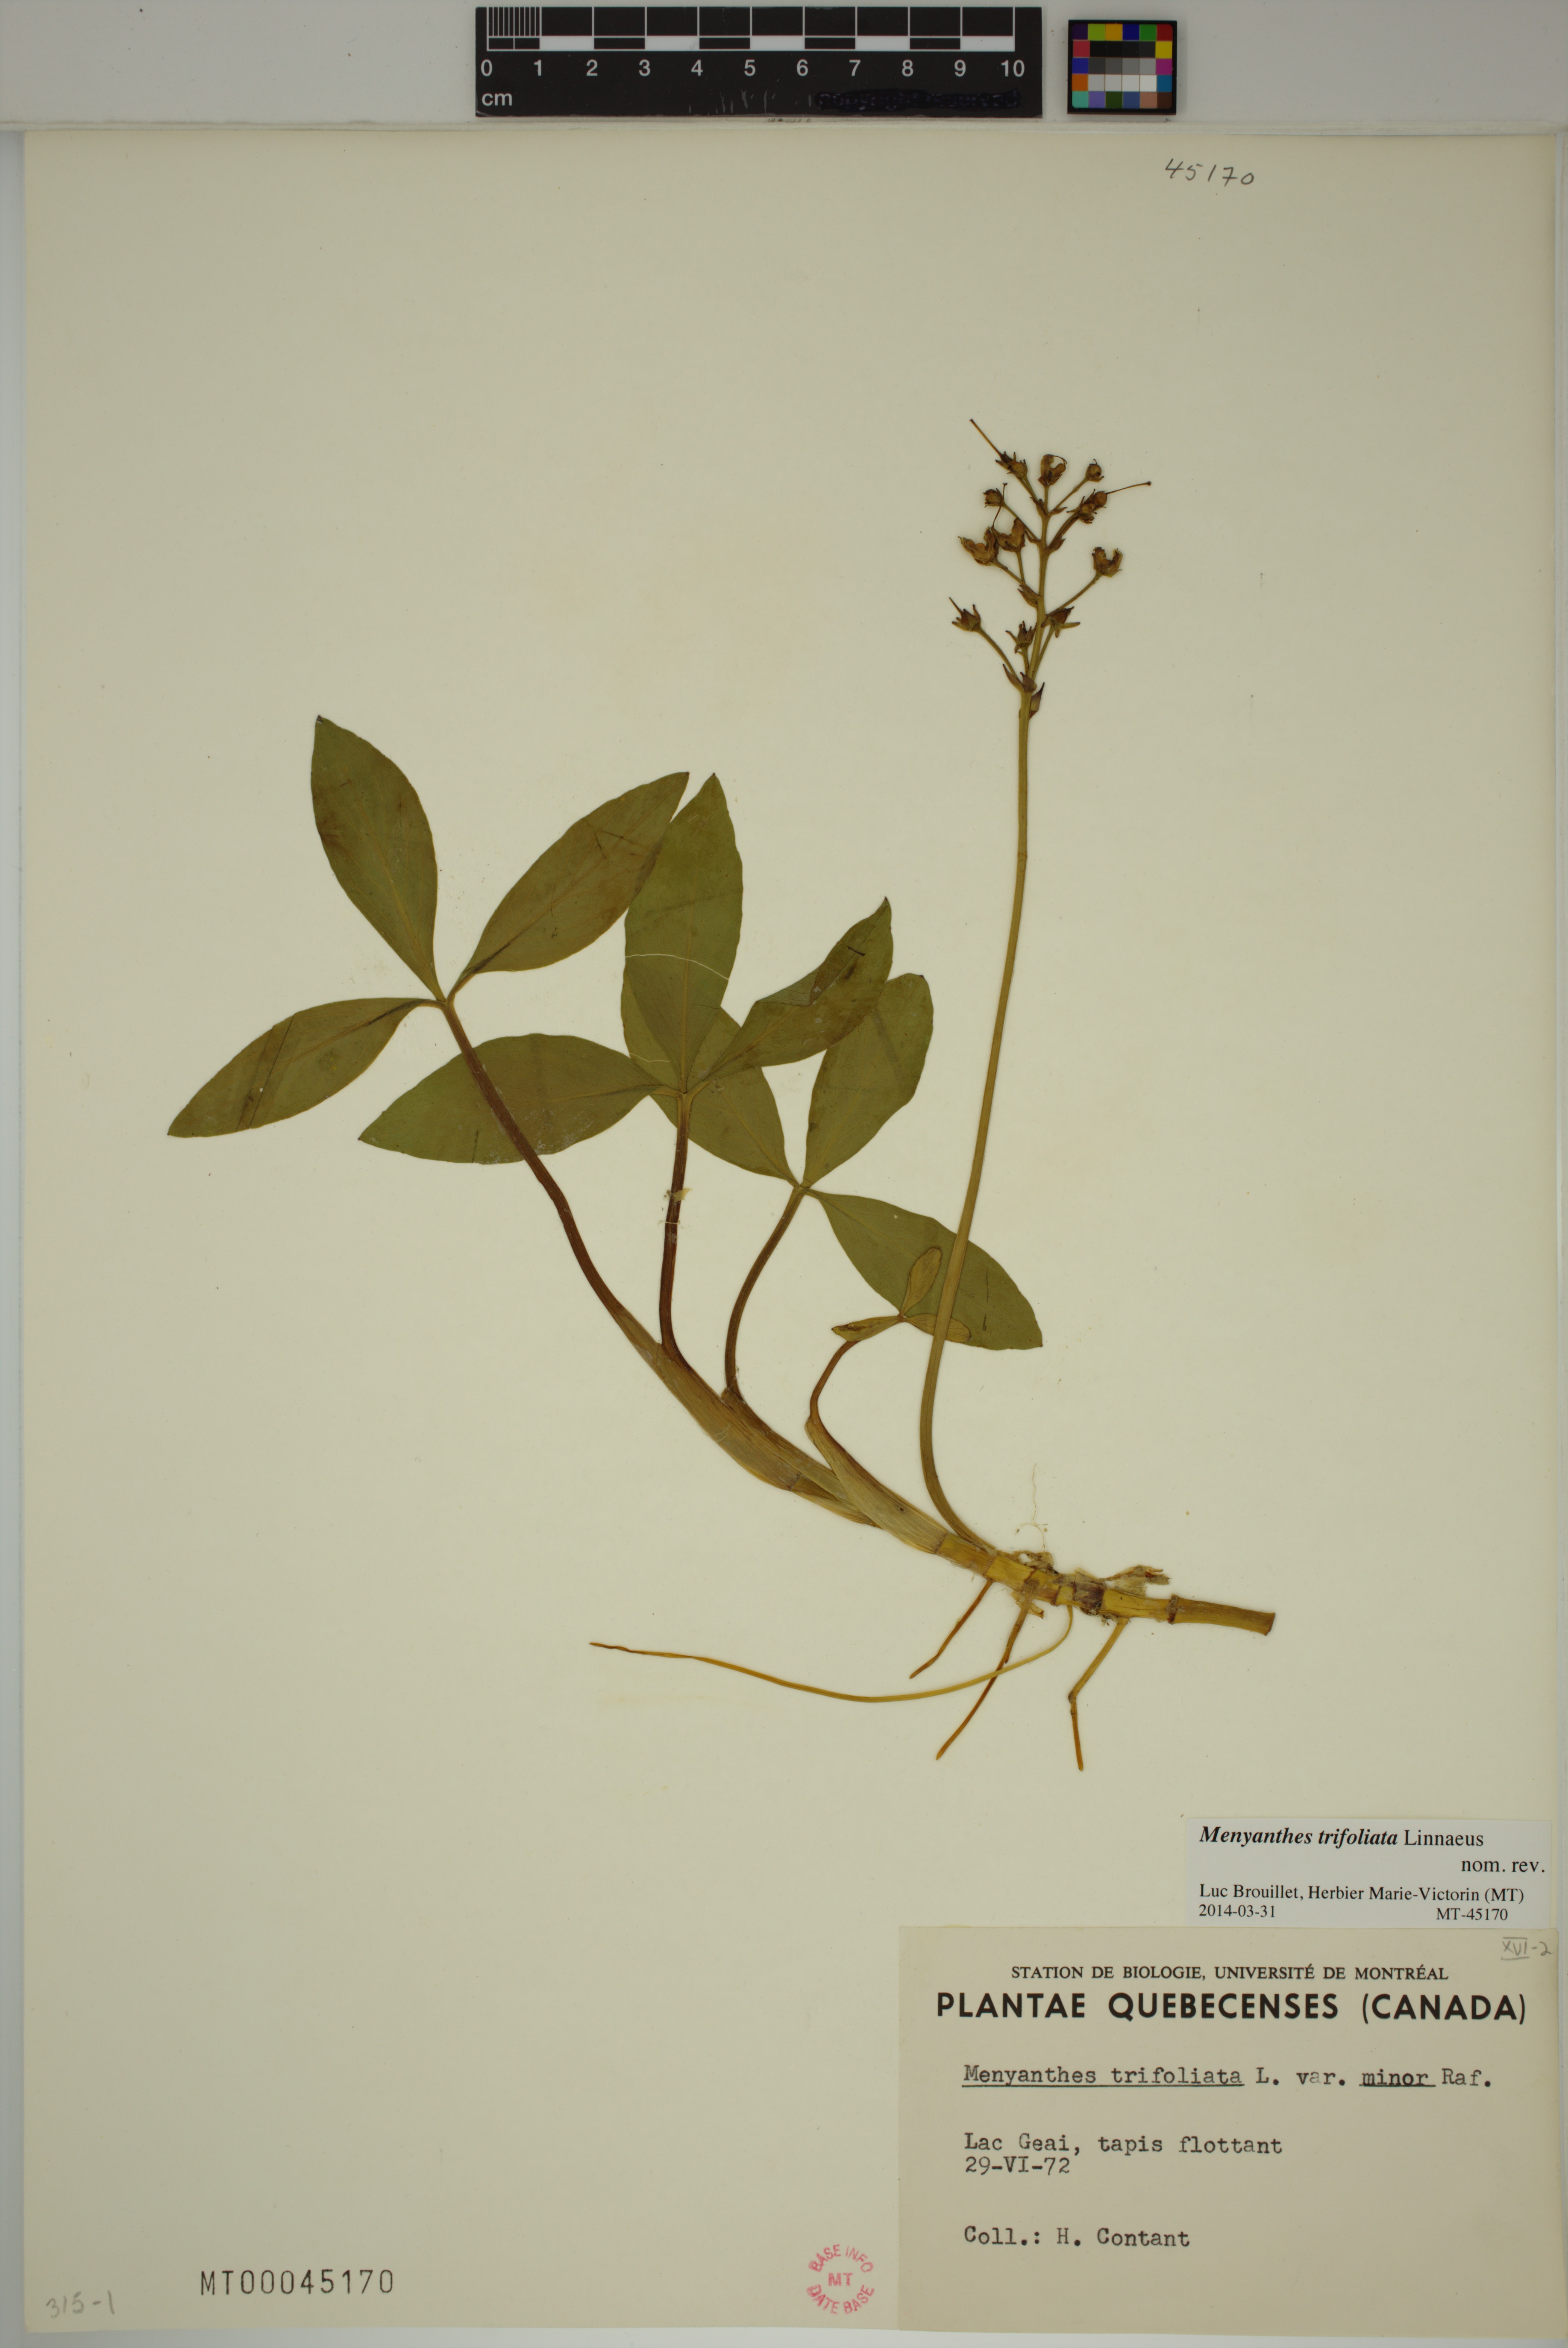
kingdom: Plantae
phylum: Tracheophyta
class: Magnoliopsida
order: Asterales
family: Menyanthaceae
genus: Menyanthes
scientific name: Menyanthes trifoliata
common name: Bogbean
